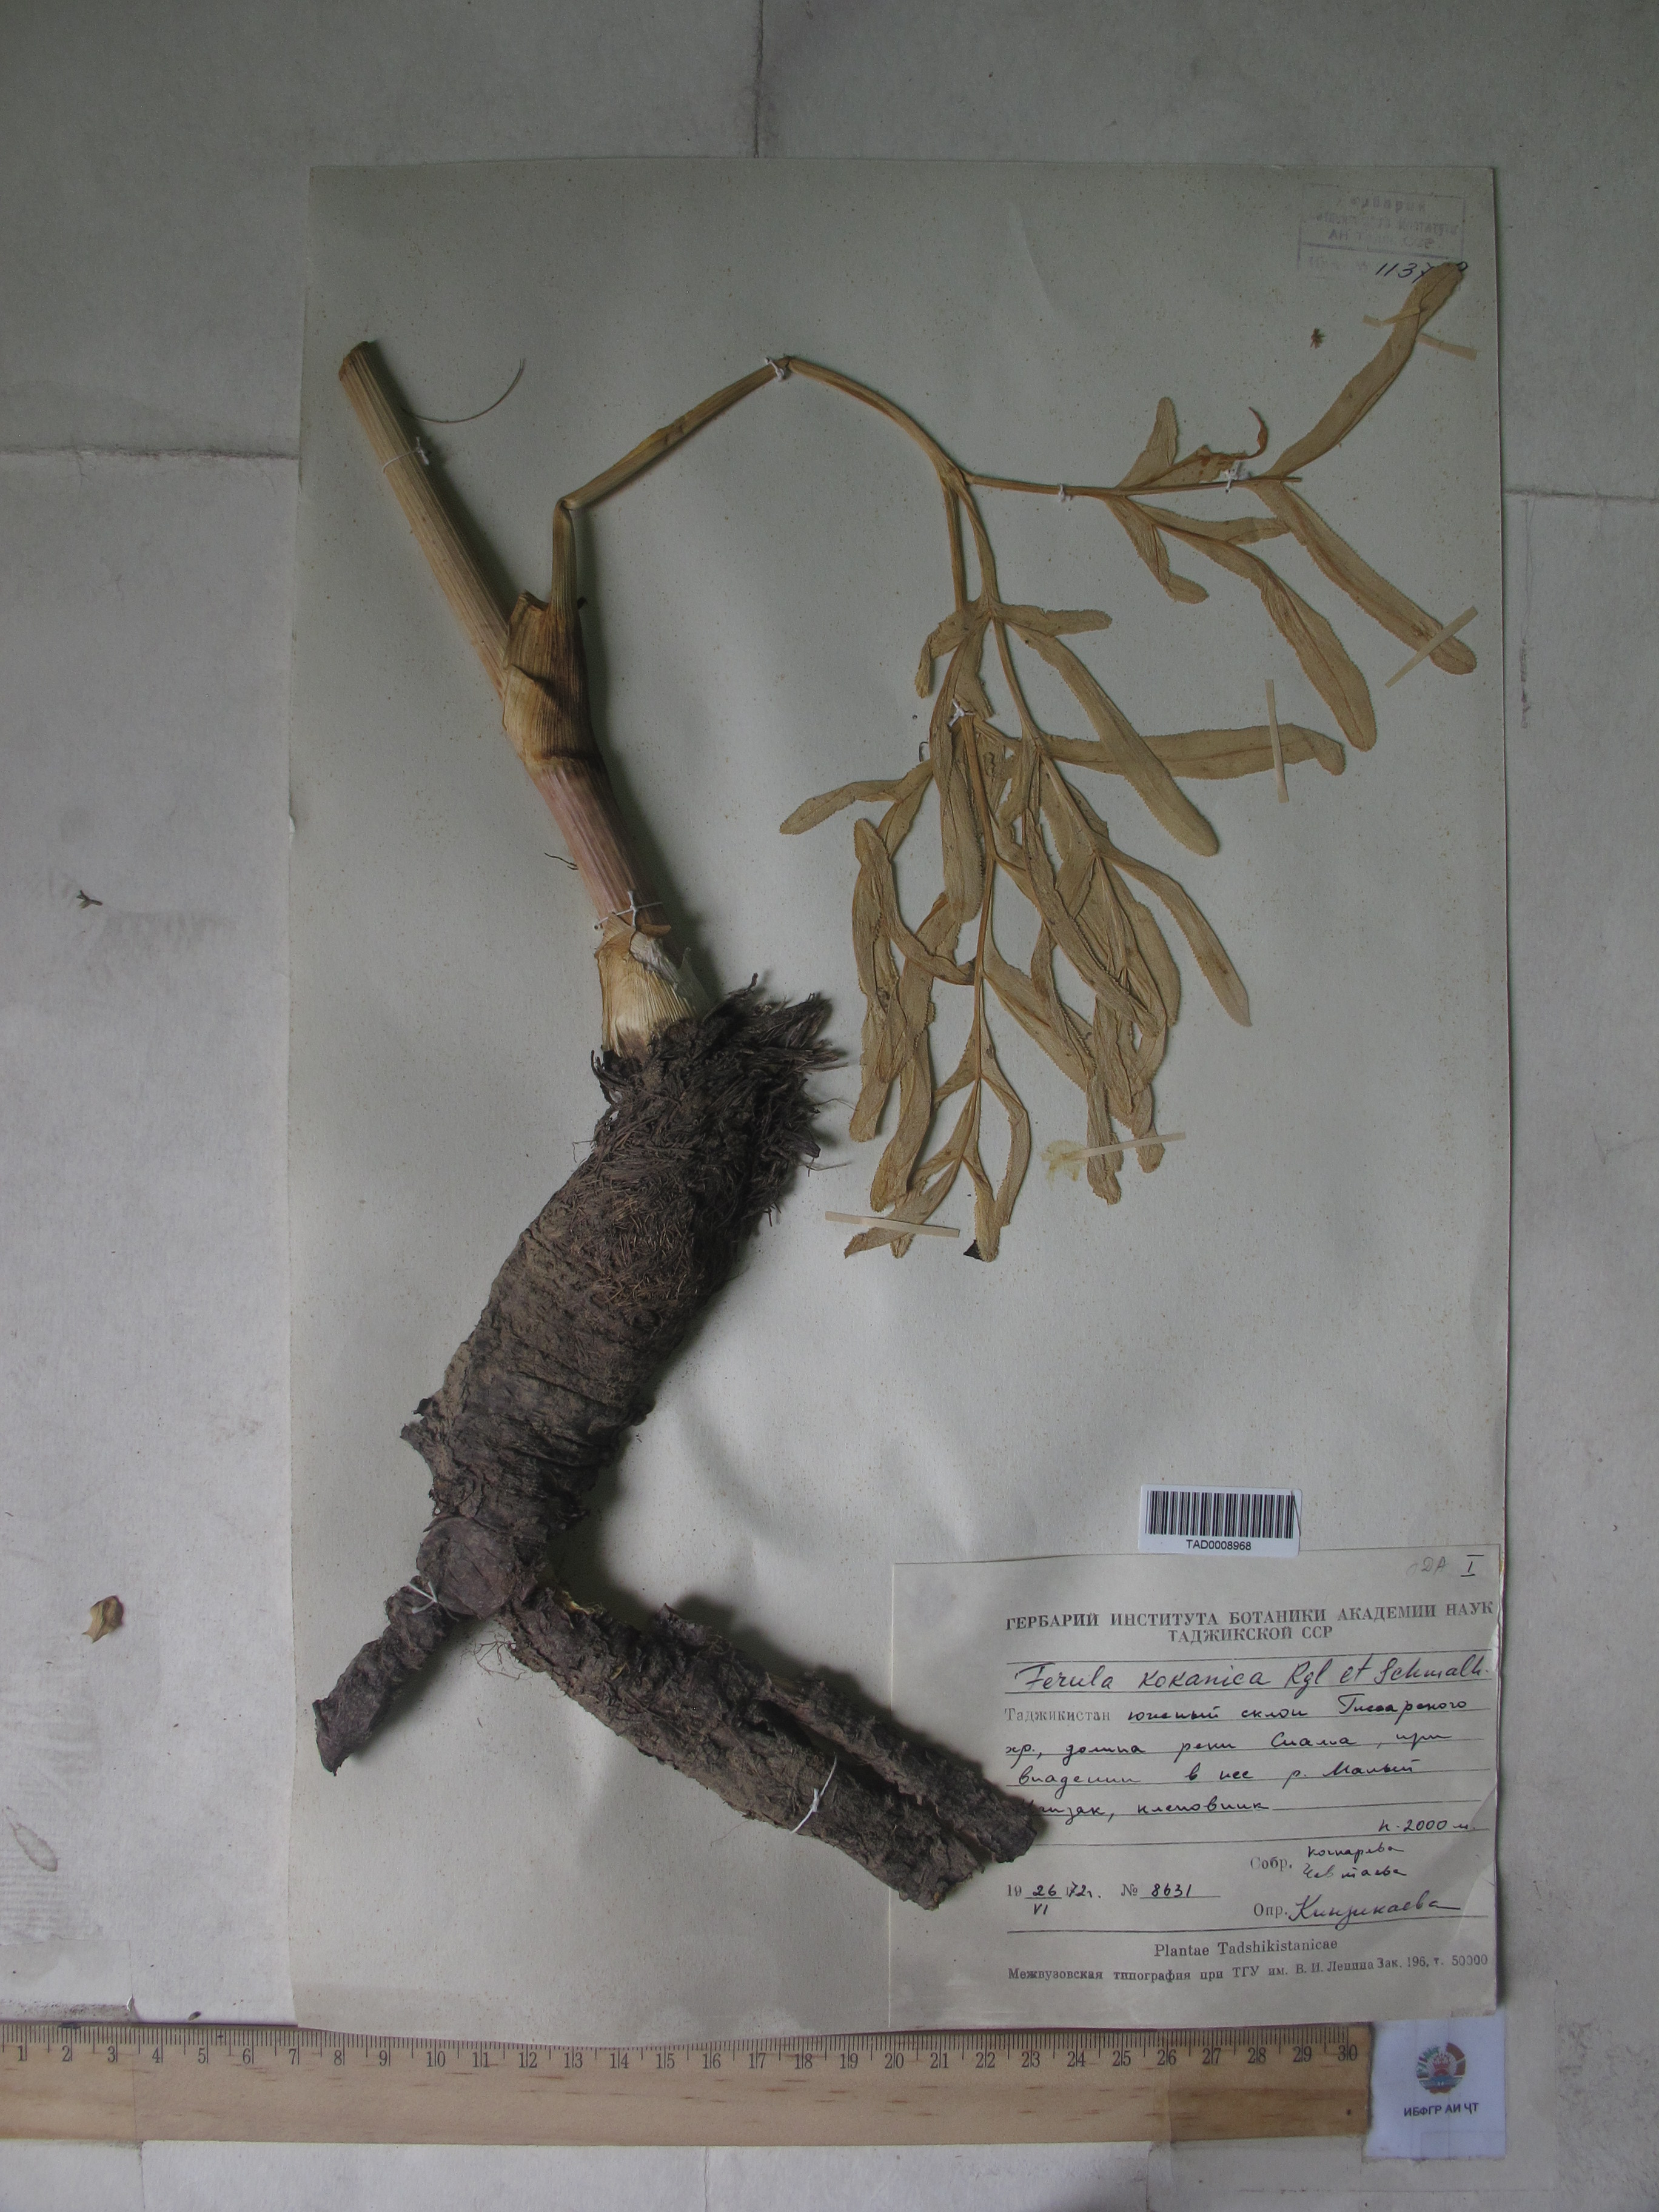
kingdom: Plantae
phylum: Tracheophyta
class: Magnoliopsida
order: Apiales
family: Apiaceae
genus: Ferula
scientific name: Ferula kokanica
